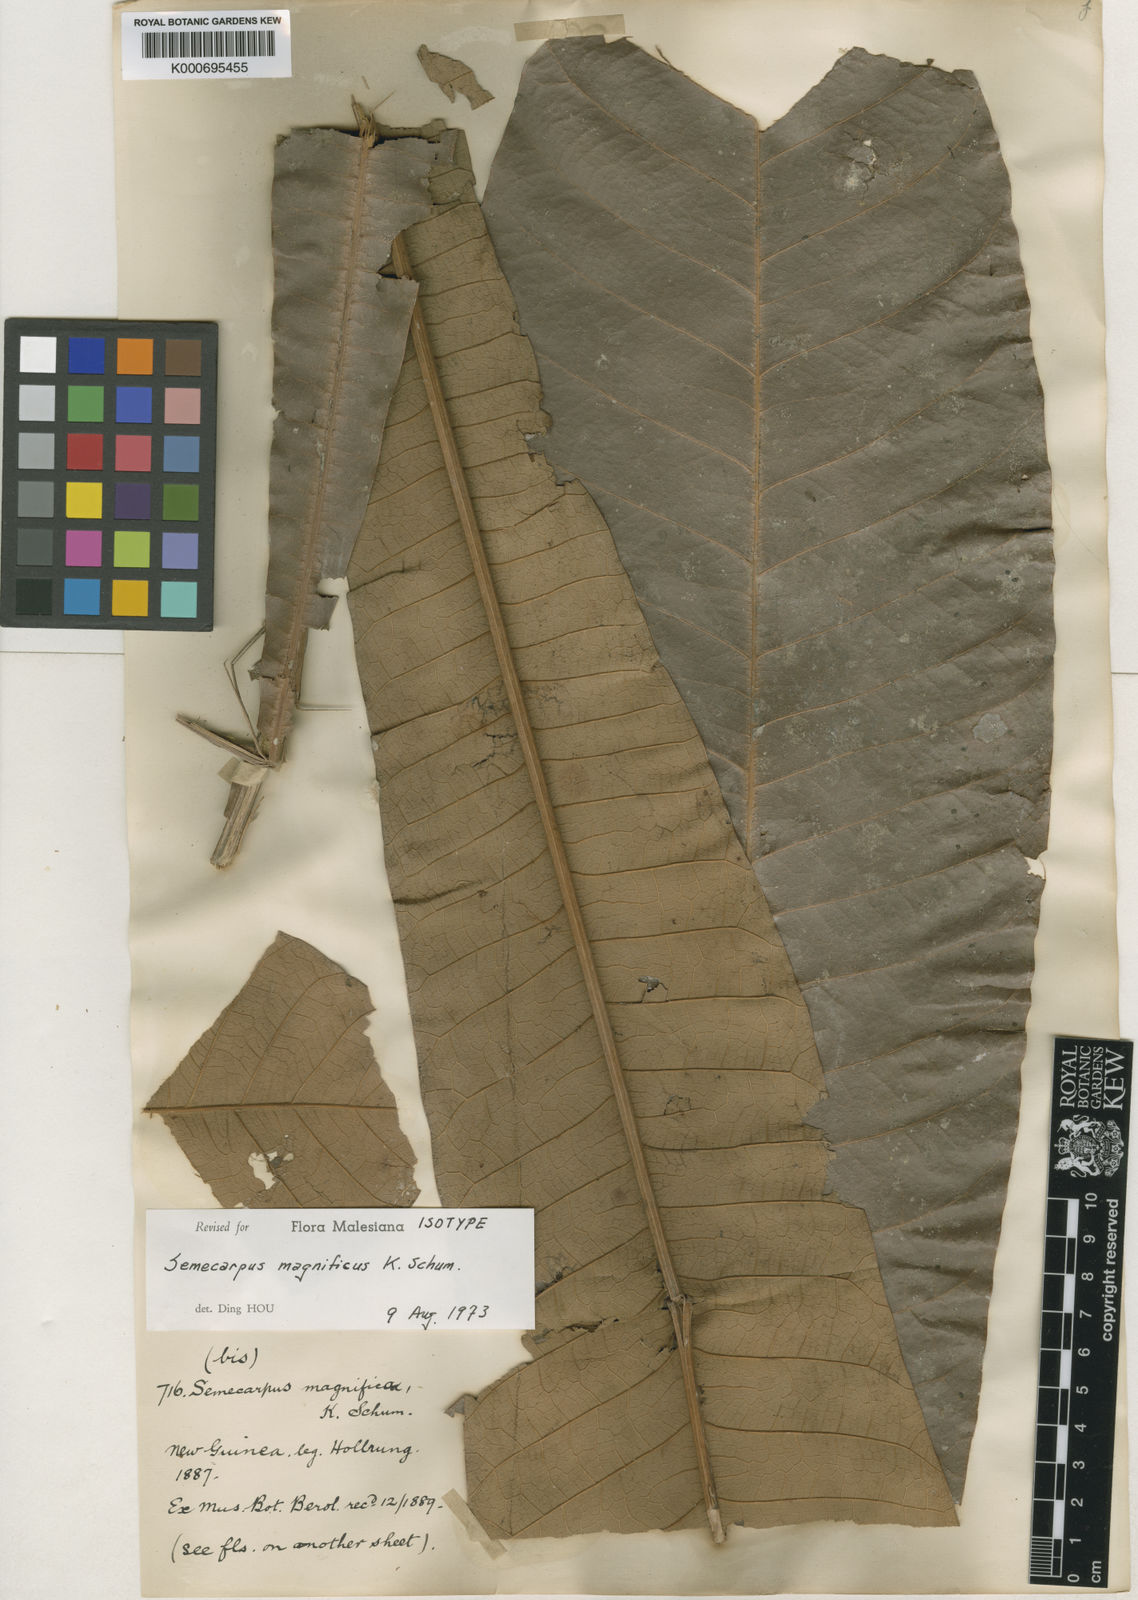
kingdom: Plantae
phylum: Tracheophyta
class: Magnoliopsida
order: Sapindales
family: Anacardiaceae
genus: Semecarpus
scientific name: Semecarpus magnificus
